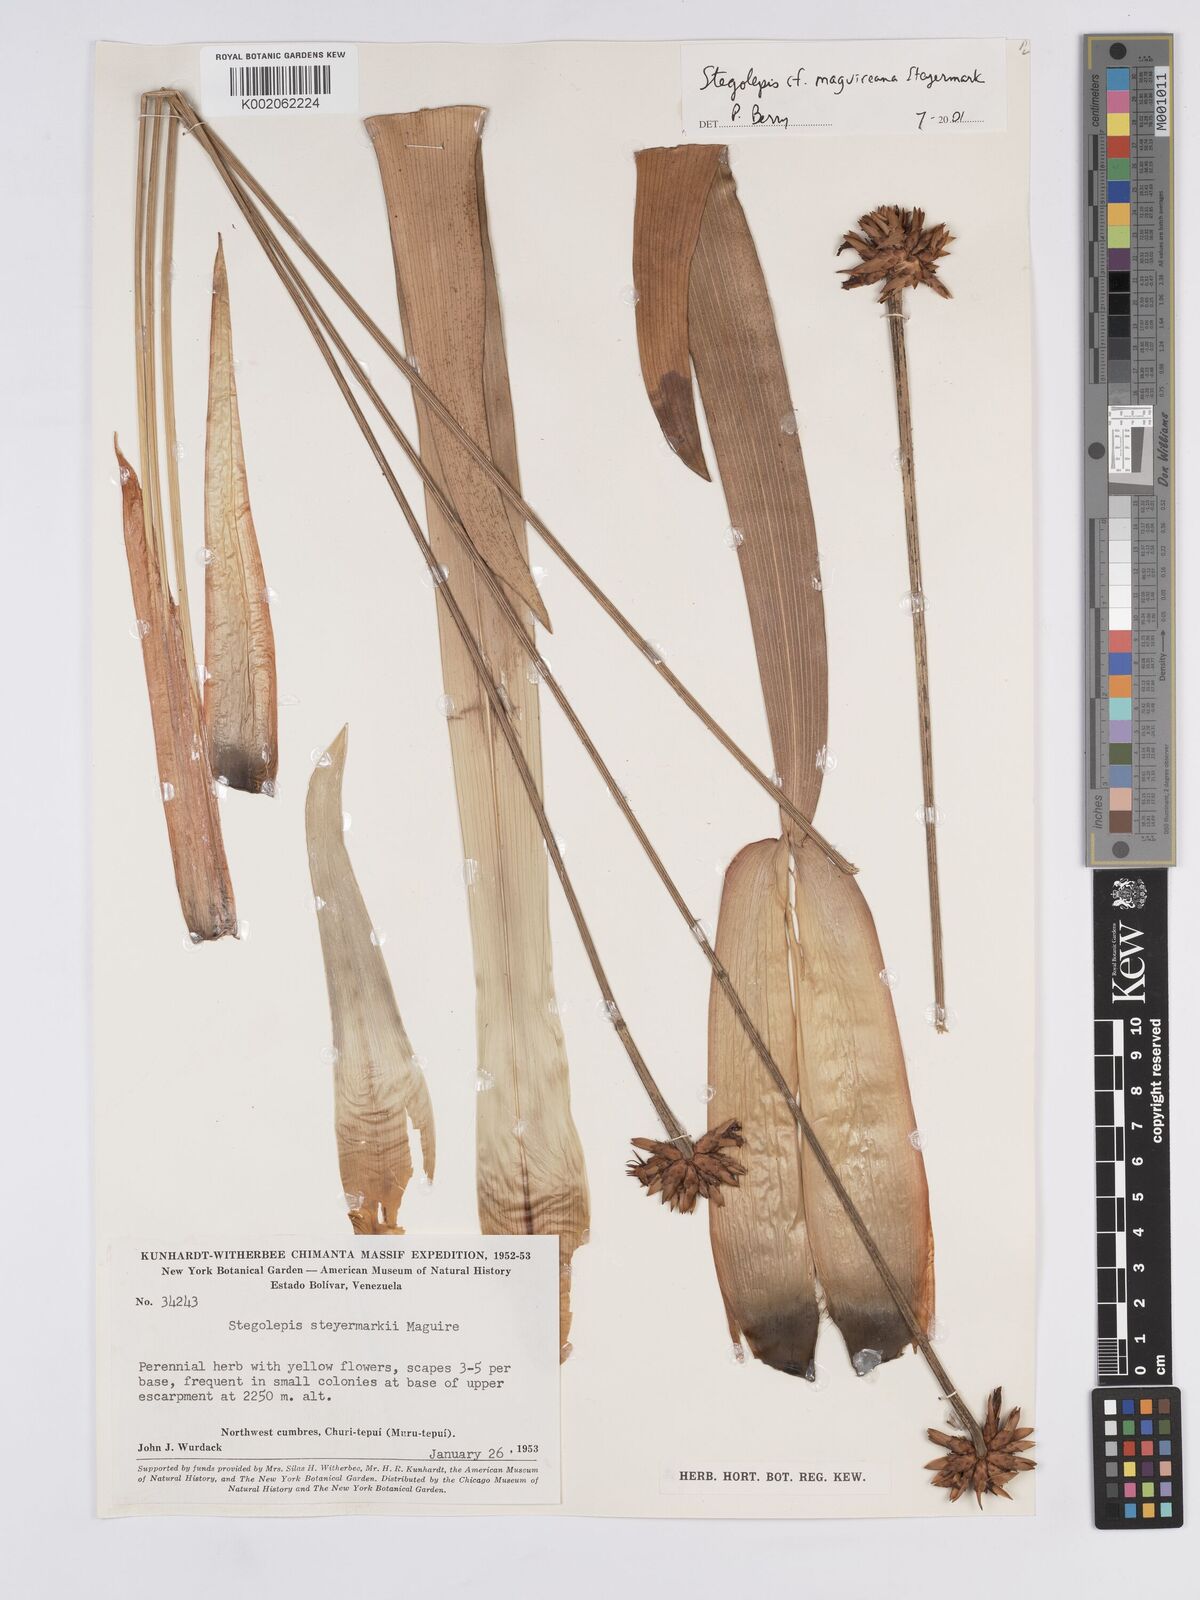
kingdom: Plantae
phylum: Tracheophyta
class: Liliopsida
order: Poales
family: Rapateaceae
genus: Stegolepis
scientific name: Stegolepis maguireana
